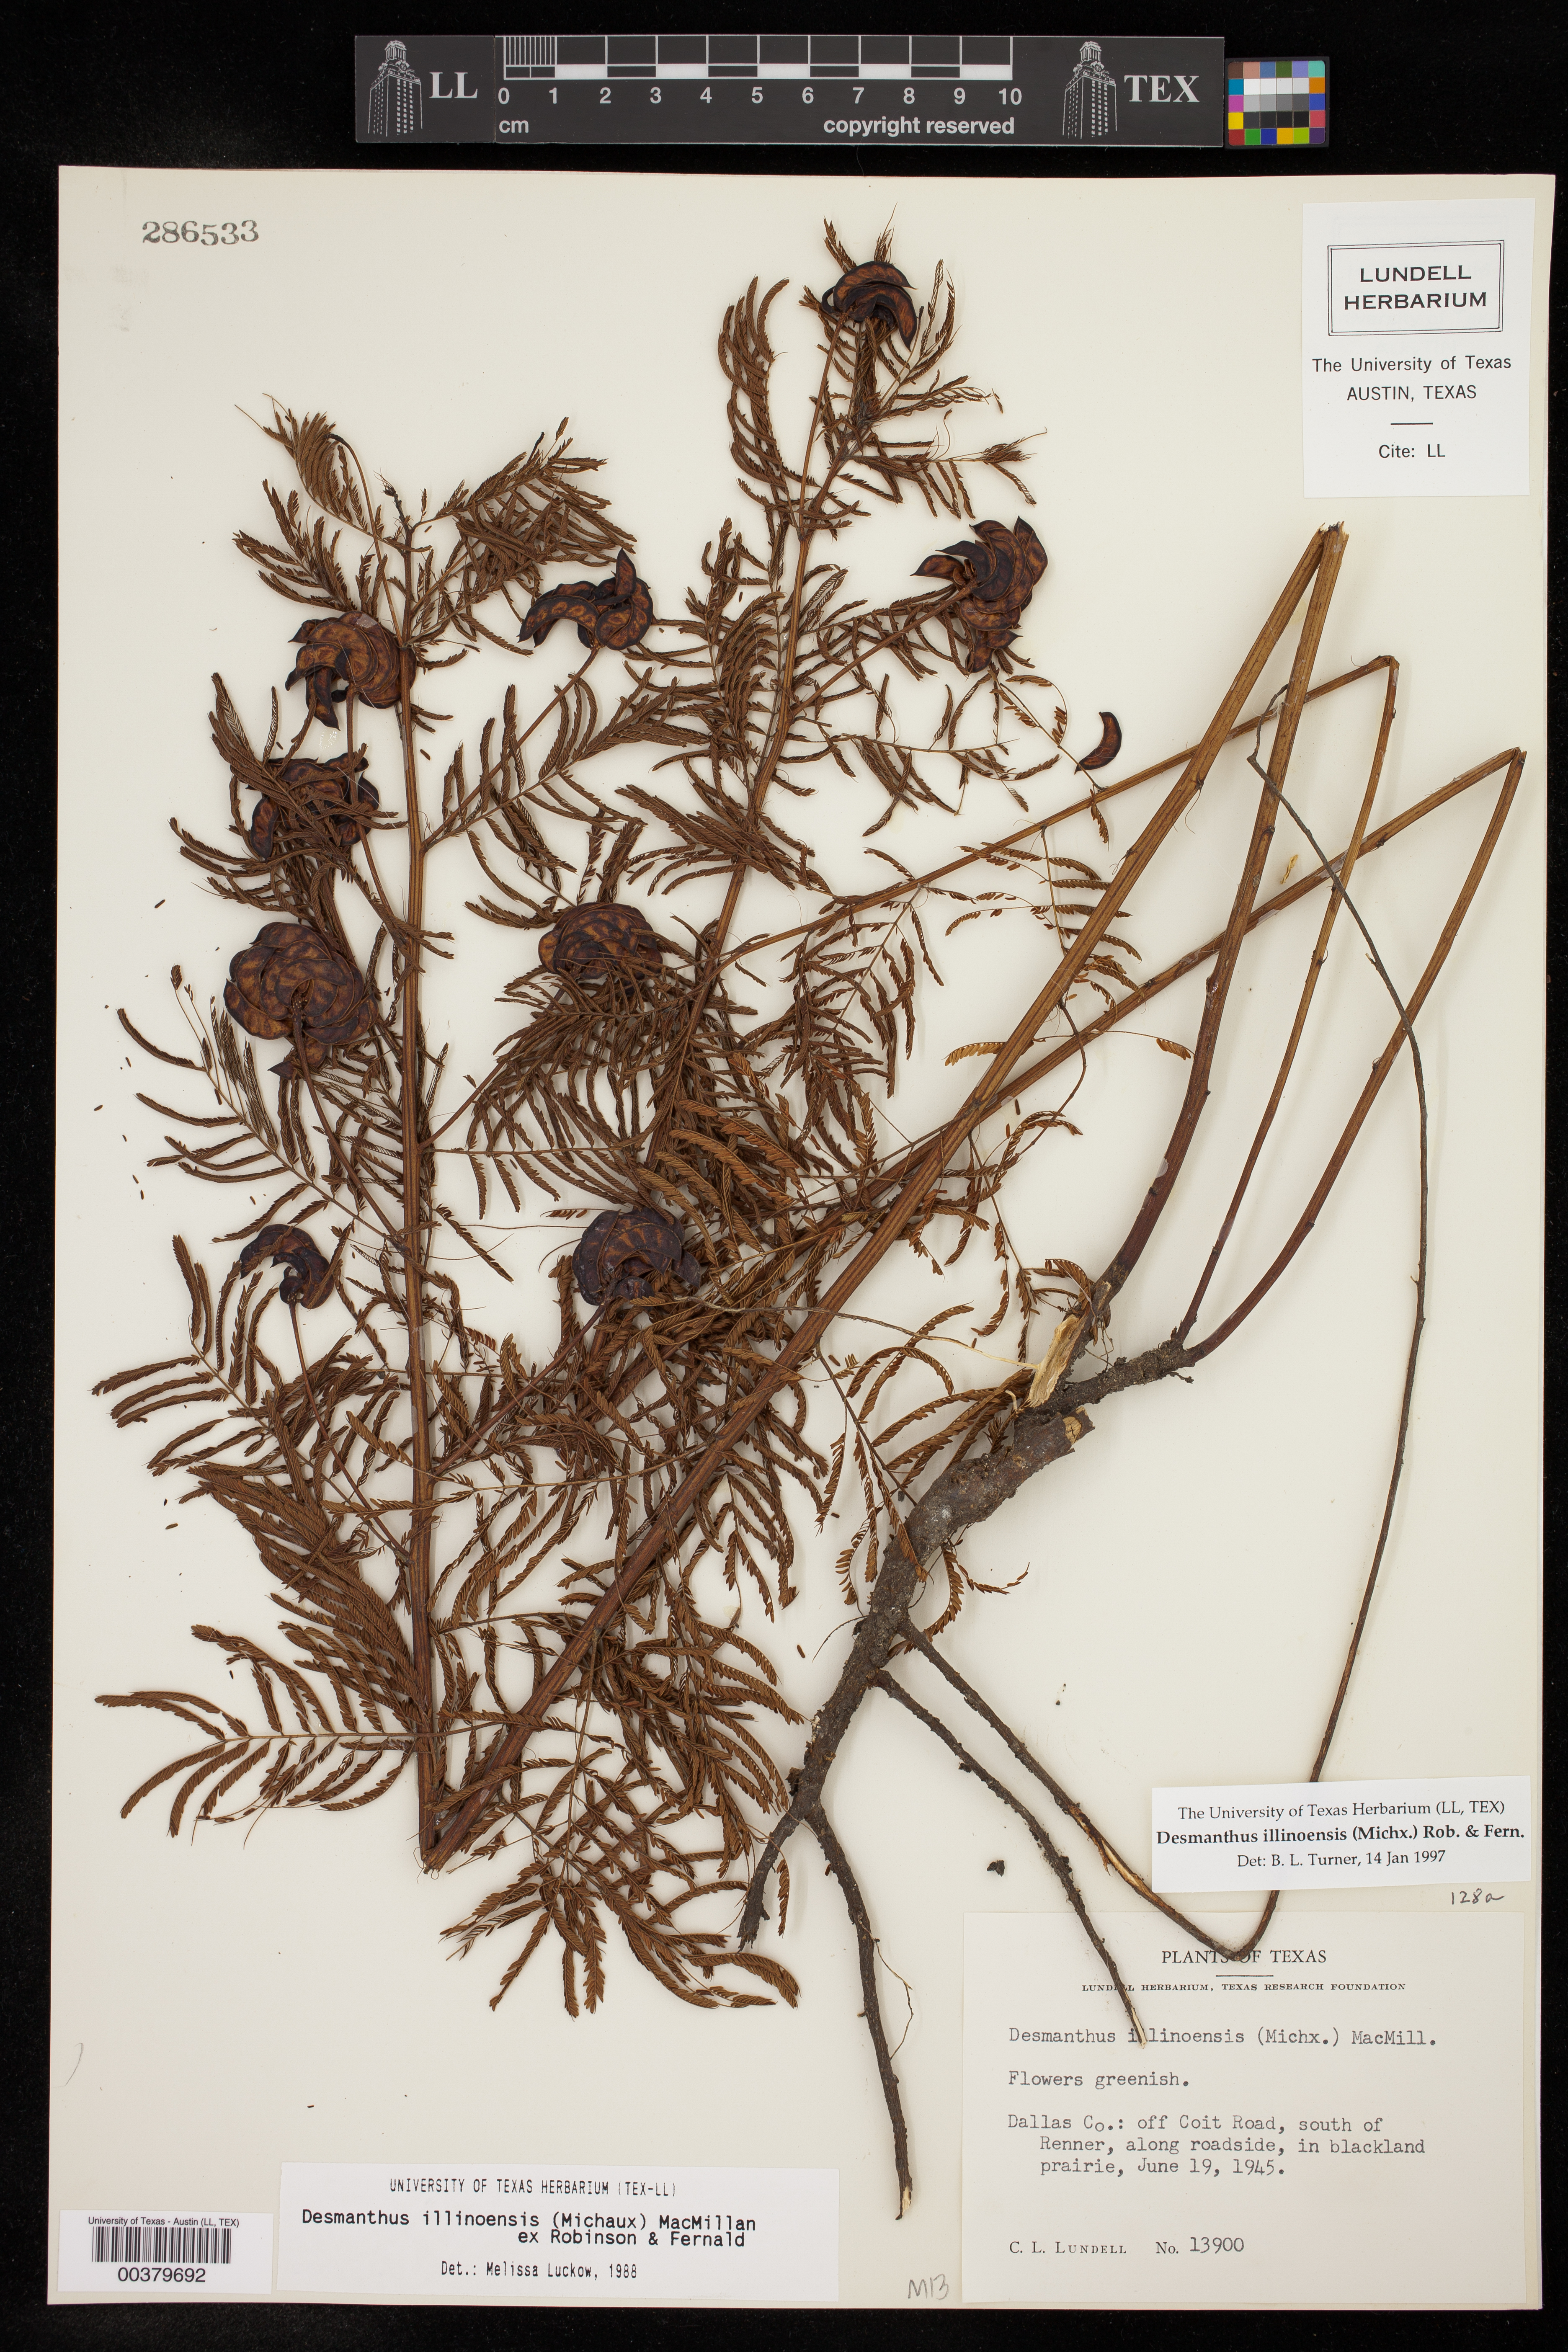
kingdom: Plantae
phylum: Tracheophyta
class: Magnoliopsida
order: Fabales
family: Fabaceae
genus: Desmanthus
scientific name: Desmanthus illinoensis
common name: Illinois bundle-flower
